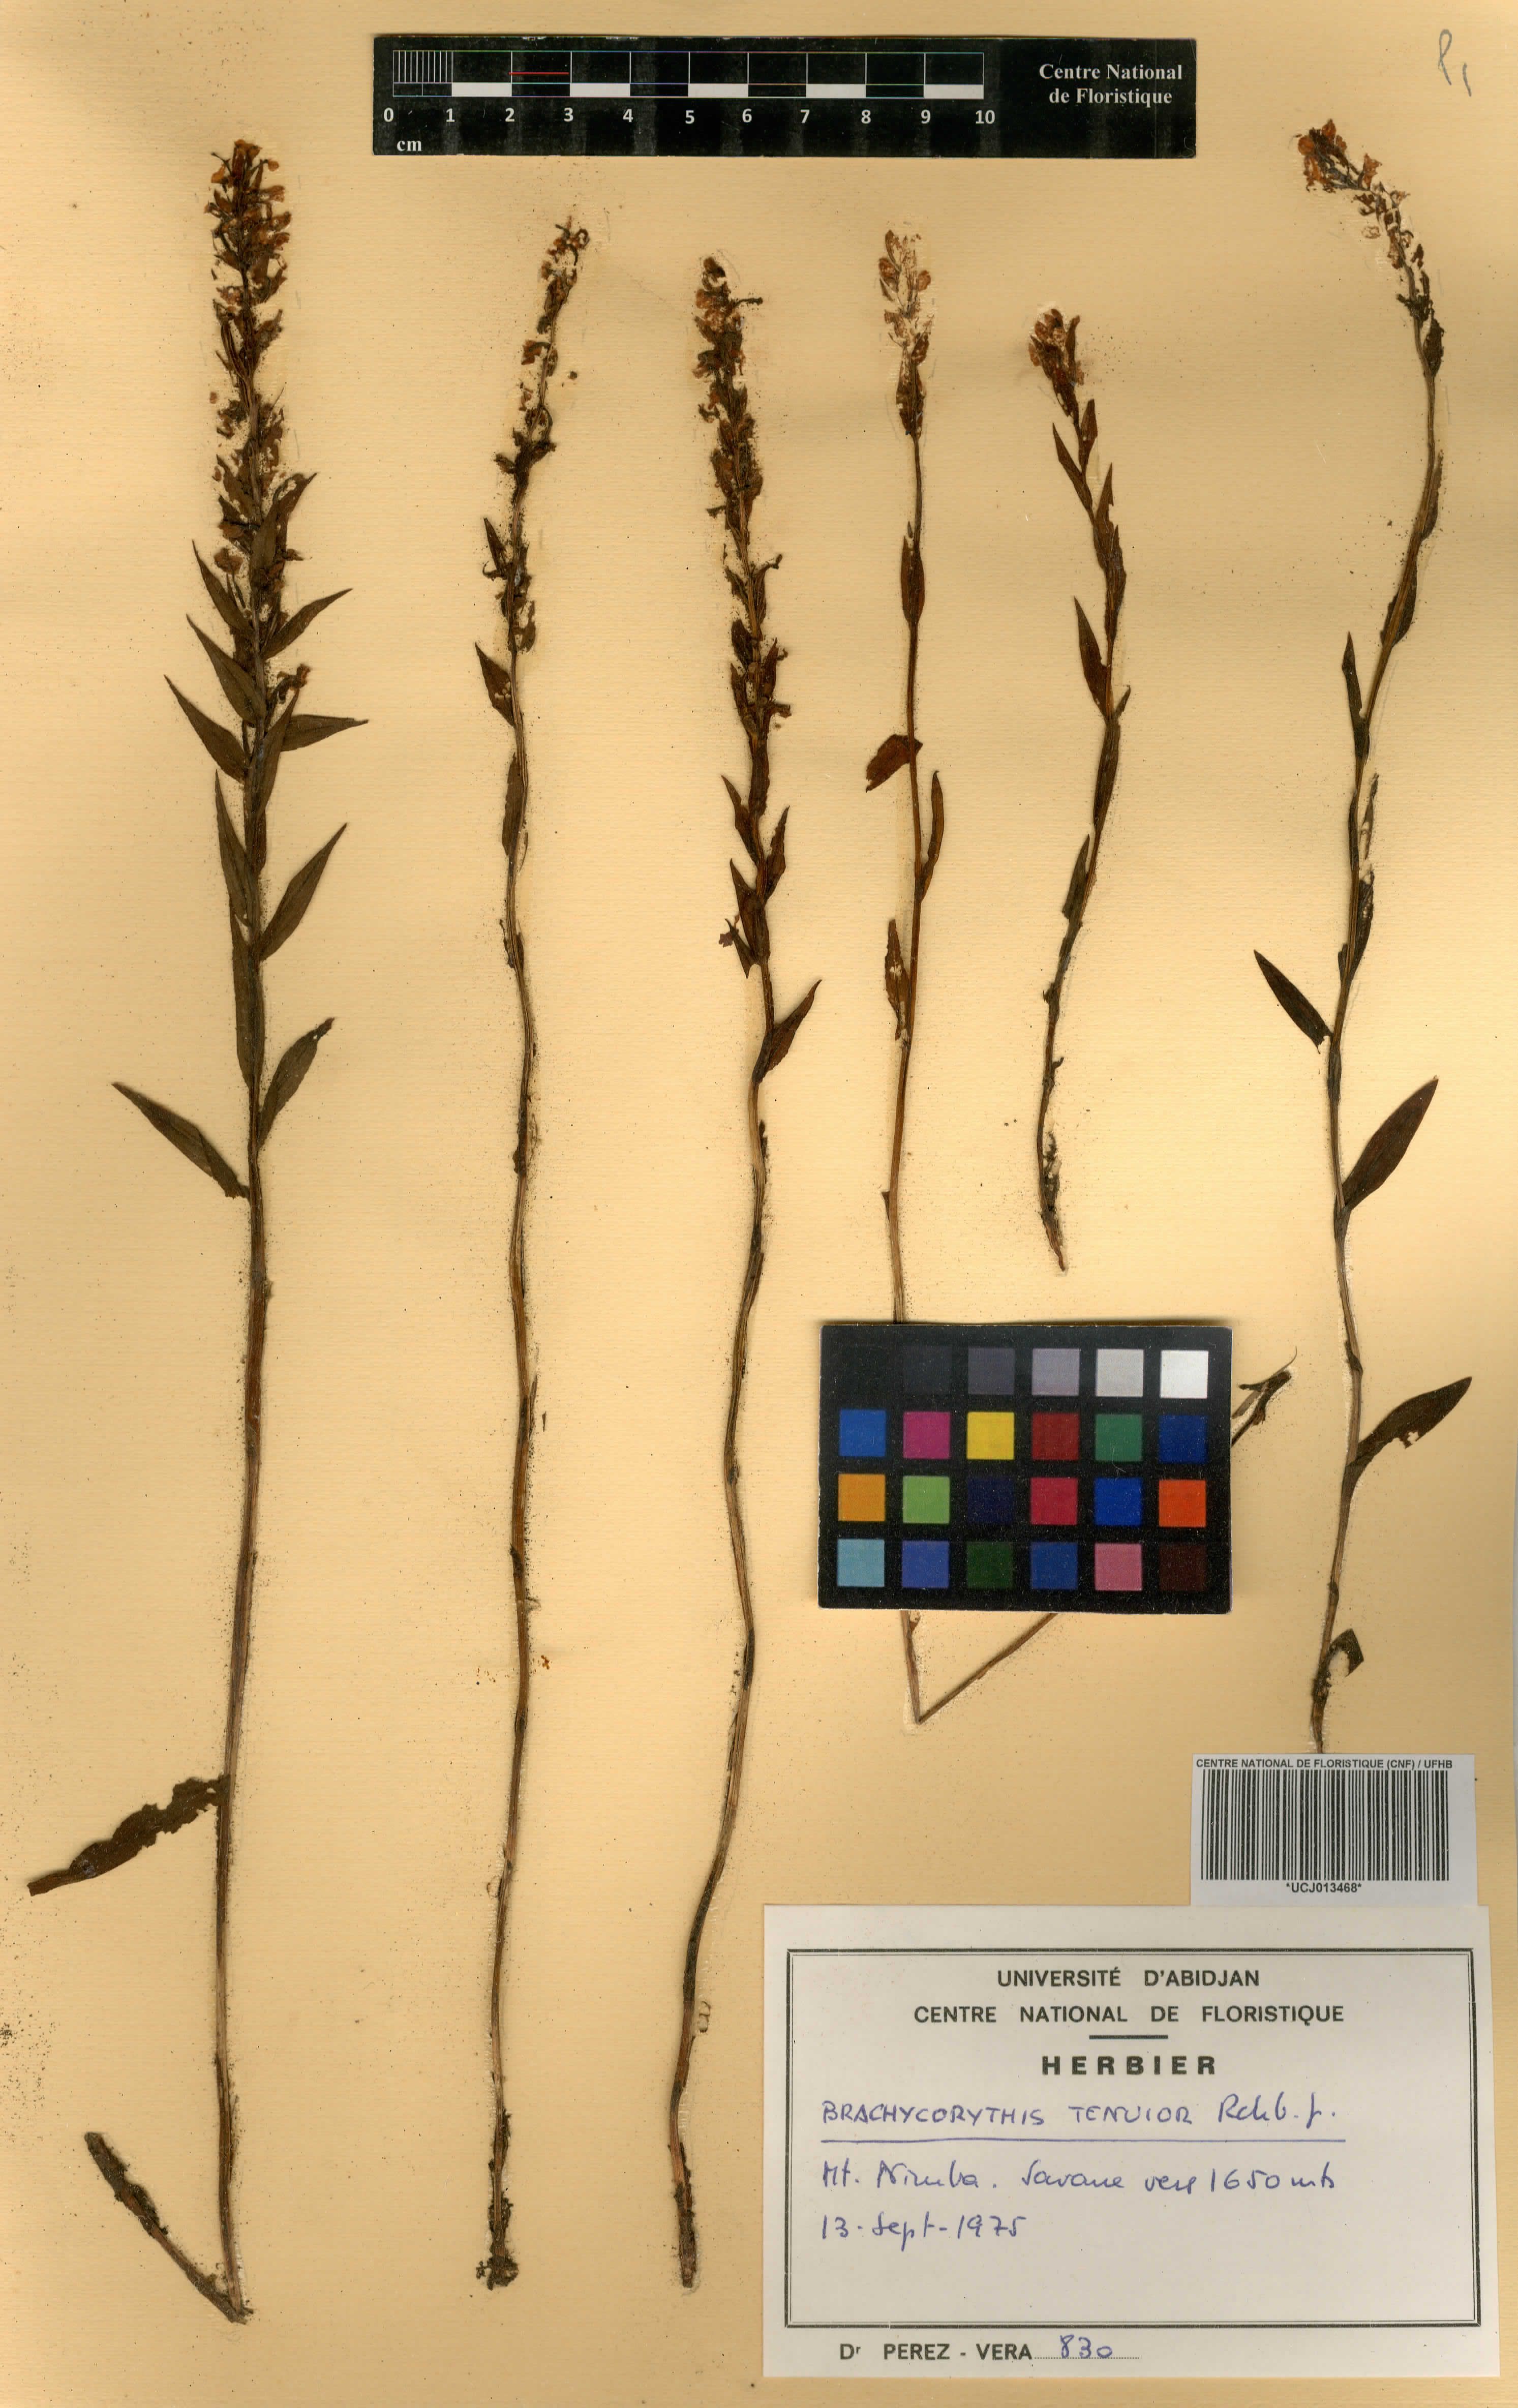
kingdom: Plantae
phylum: Tracheophyta
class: Liliopsida
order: Asparagales
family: Orchidaceae
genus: Brachycorythis
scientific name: Brachycorythis tenuior
